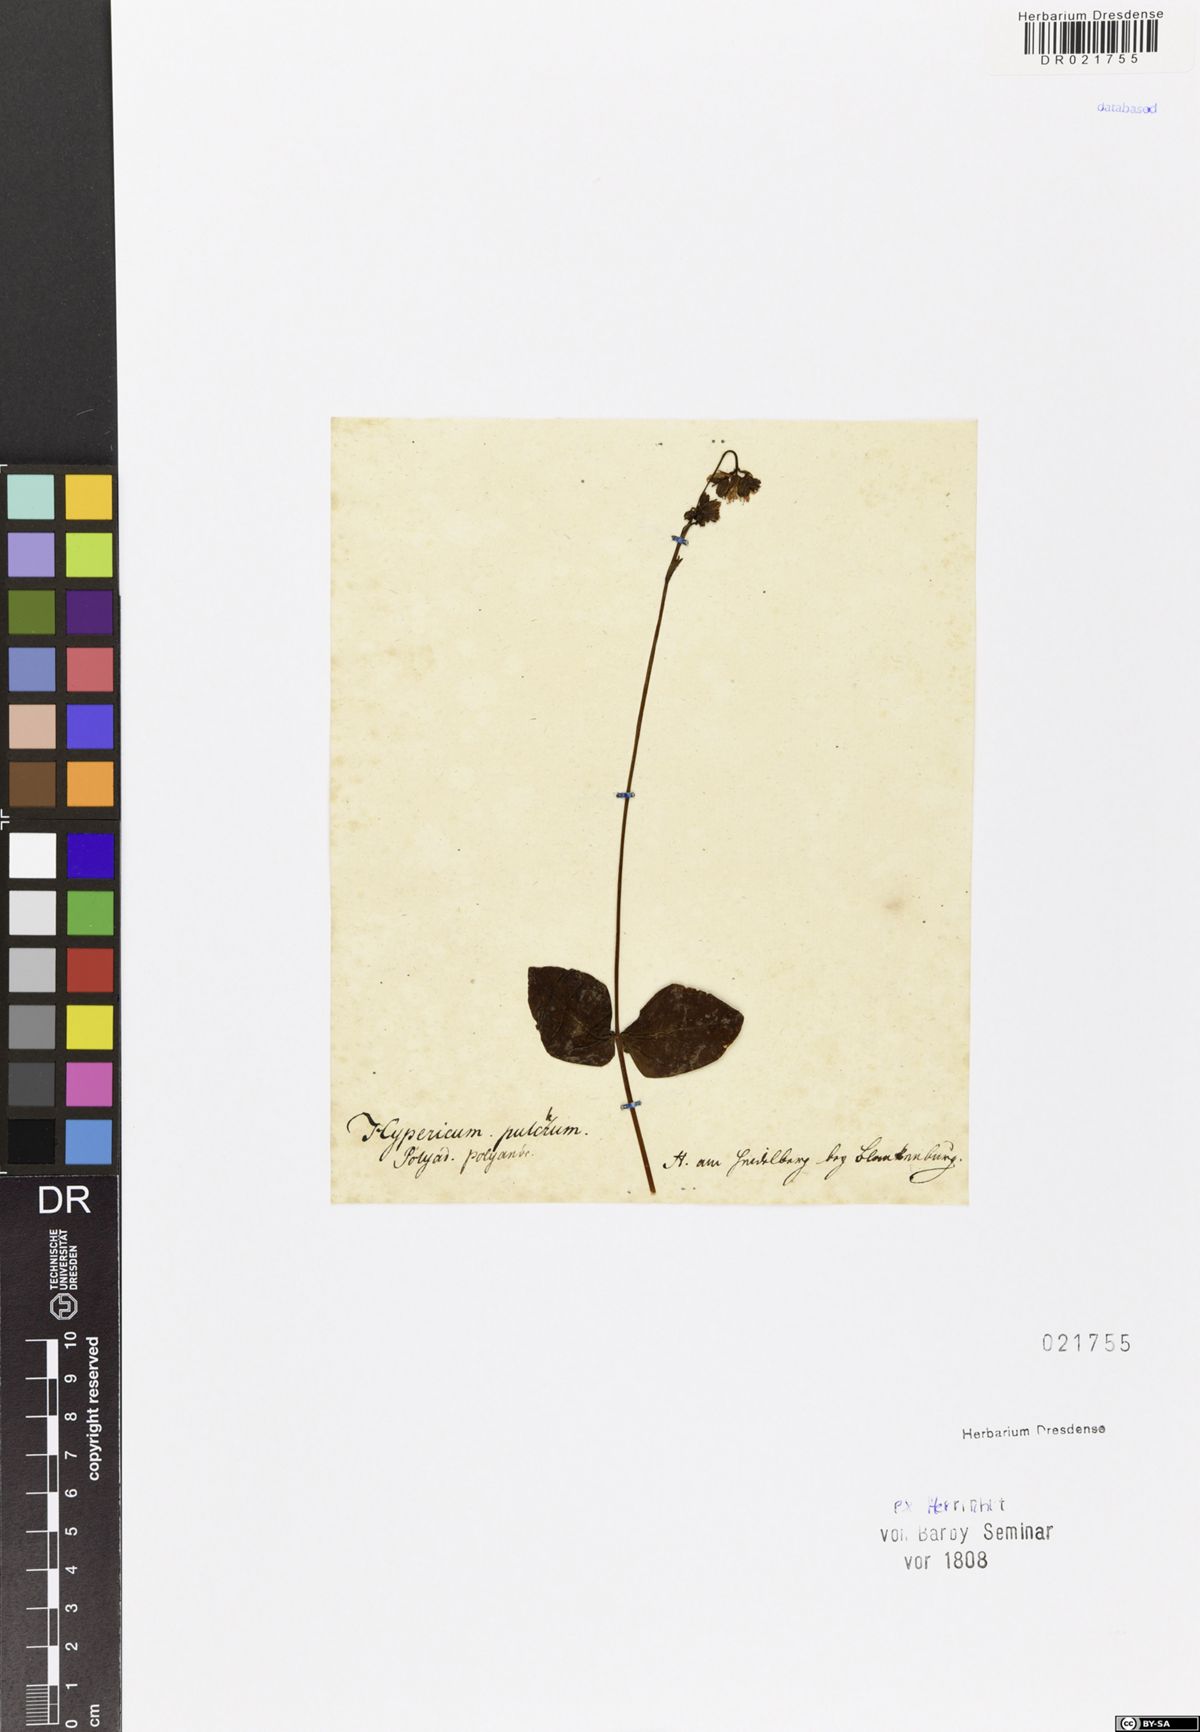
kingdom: Plantae
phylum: Tracheophyta
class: Magnoliopsida
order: Malpighiales
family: Hypericaceae
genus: Hypericum
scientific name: Hypericum montanum
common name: Pale st. john's-wort
